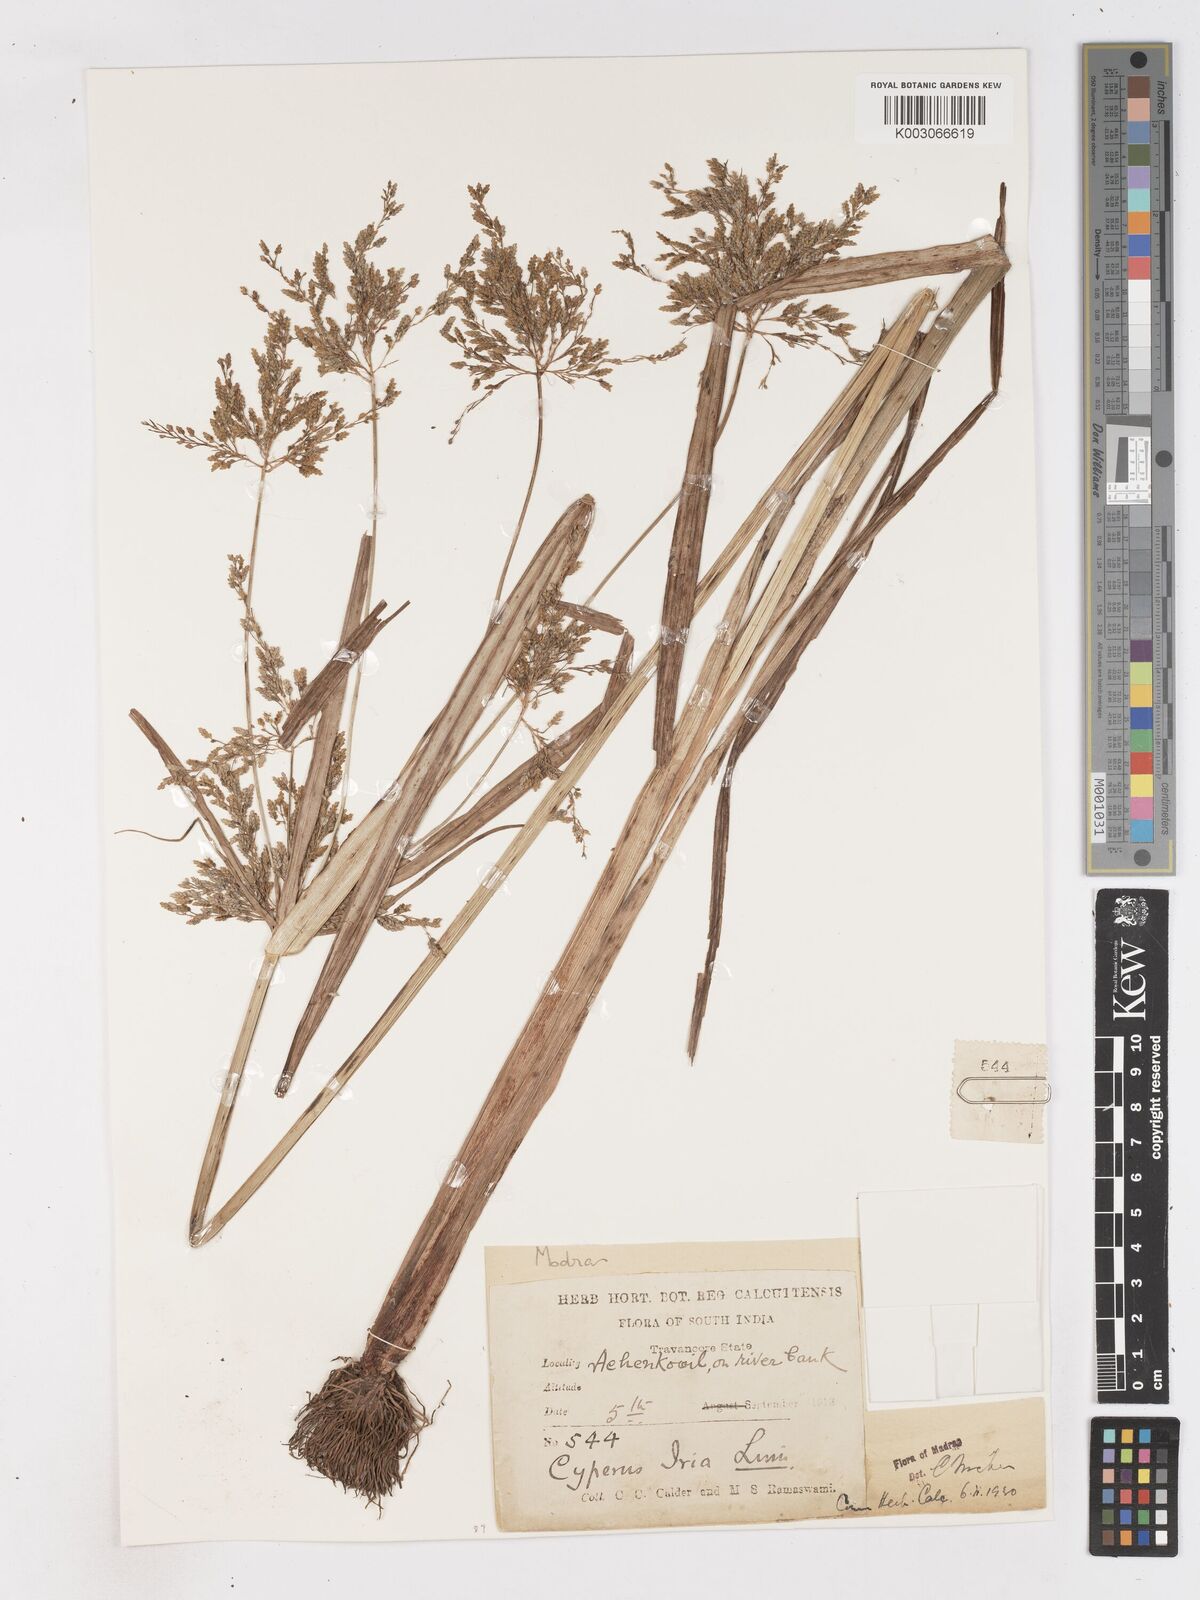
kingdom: Plantae
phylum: Tracheophyta
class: Liliopsida
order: Poales
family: Cyperaceae
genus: Cyperus
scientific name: Cyperus microiria
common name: Asian flatsedge
